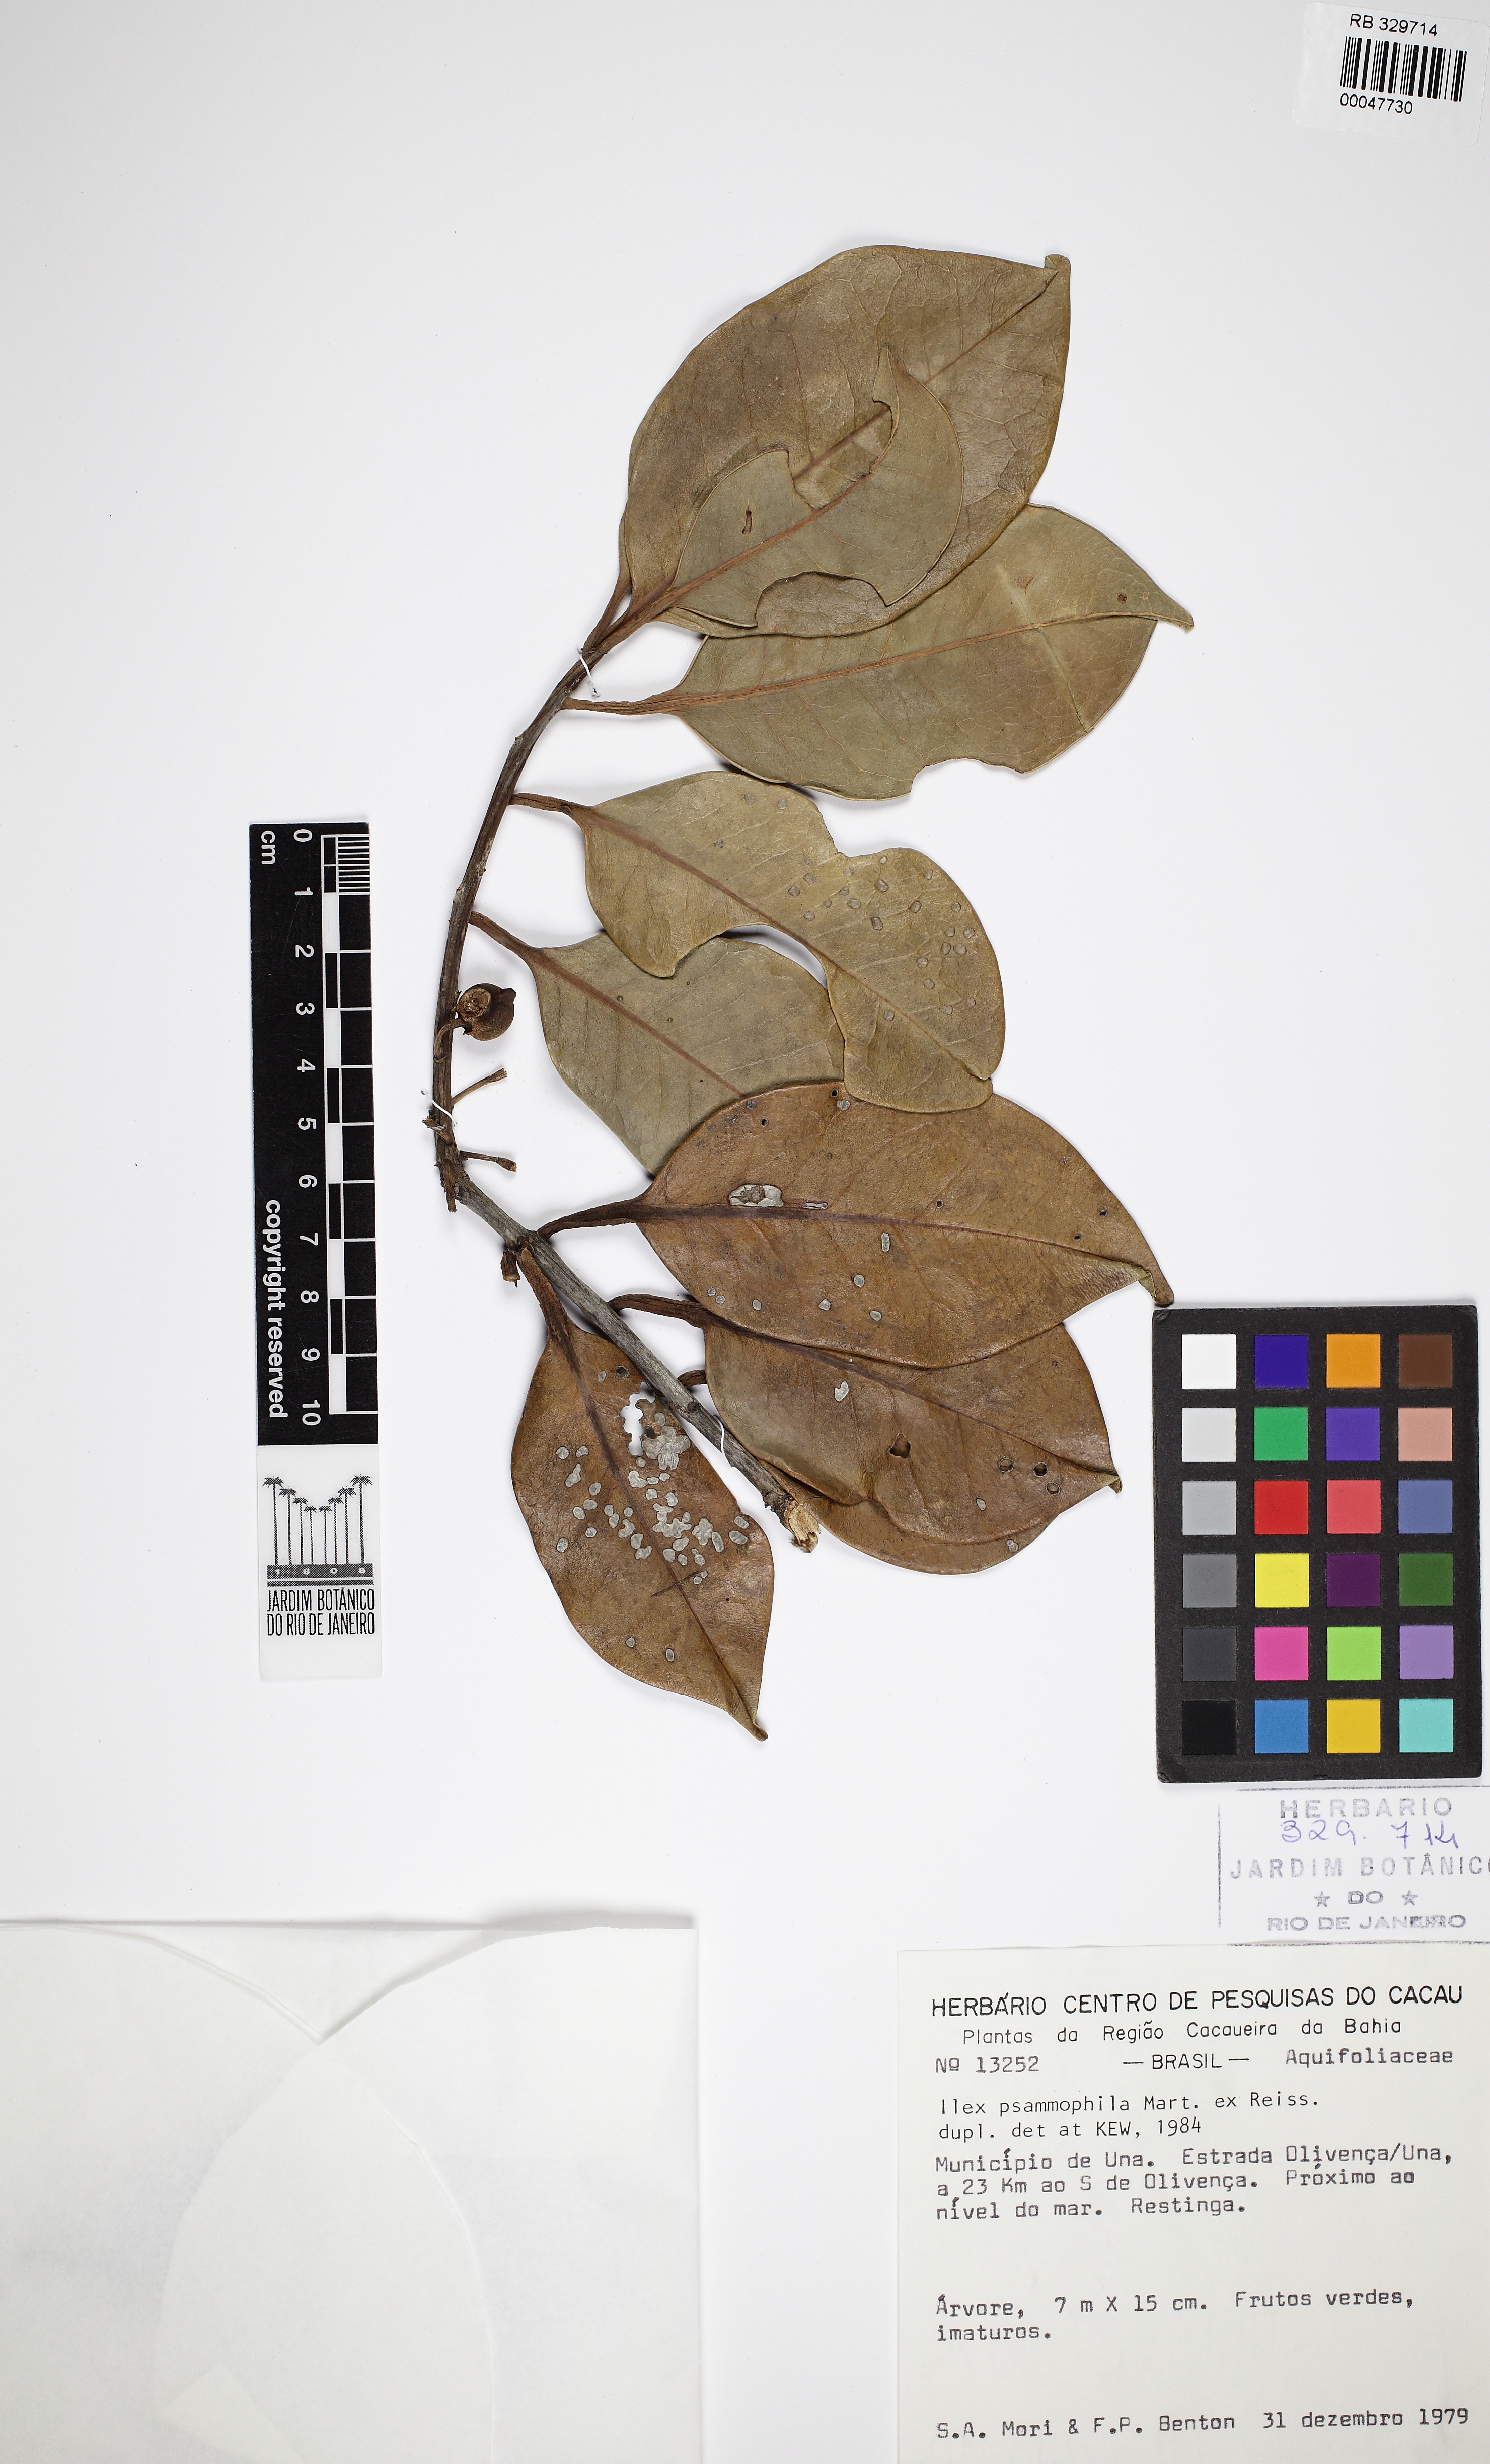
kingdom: Plantae
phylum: Tracheophyta
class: Magnoliopsida
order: Aquifoliales
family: Aquifoliaceae
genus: Ilex
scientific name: Ilex psammophila
